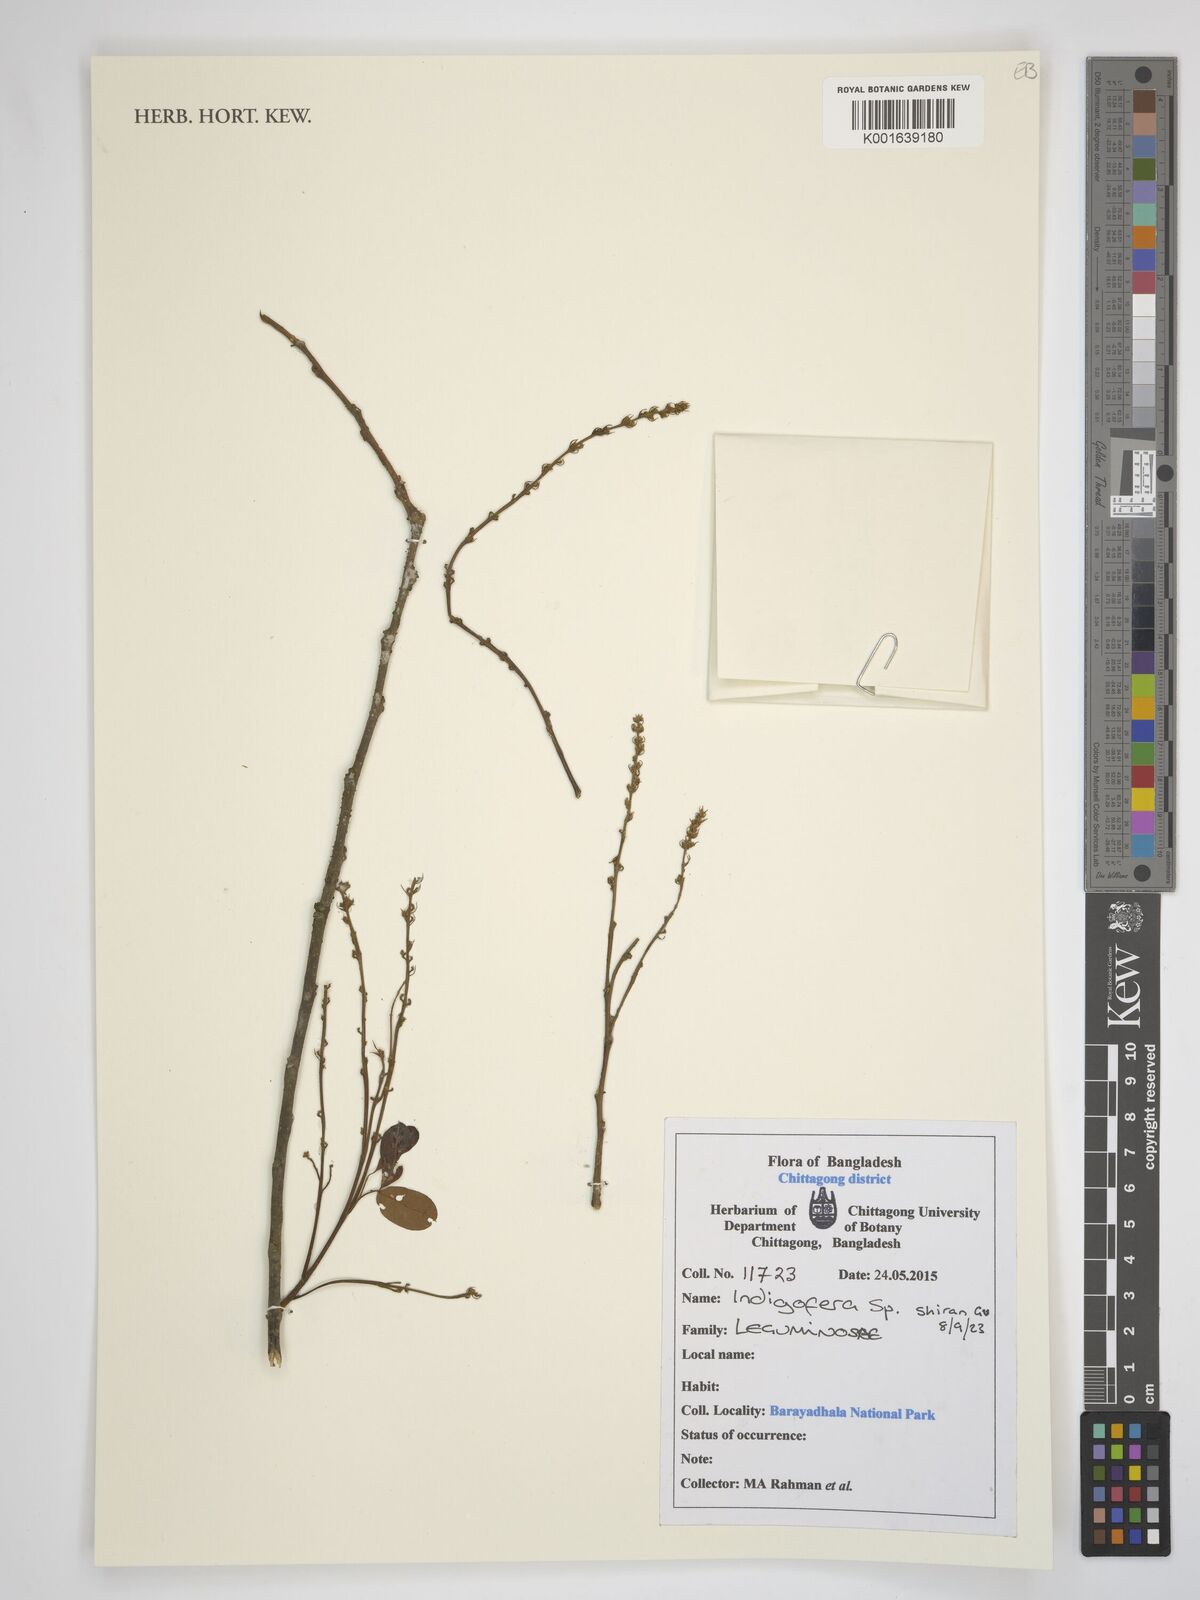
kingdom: Plantae
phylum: Tracheophyta
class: Magnoliopsida
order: Fabales
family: Fabaceae
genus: Indigofera
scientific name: Indigofera
